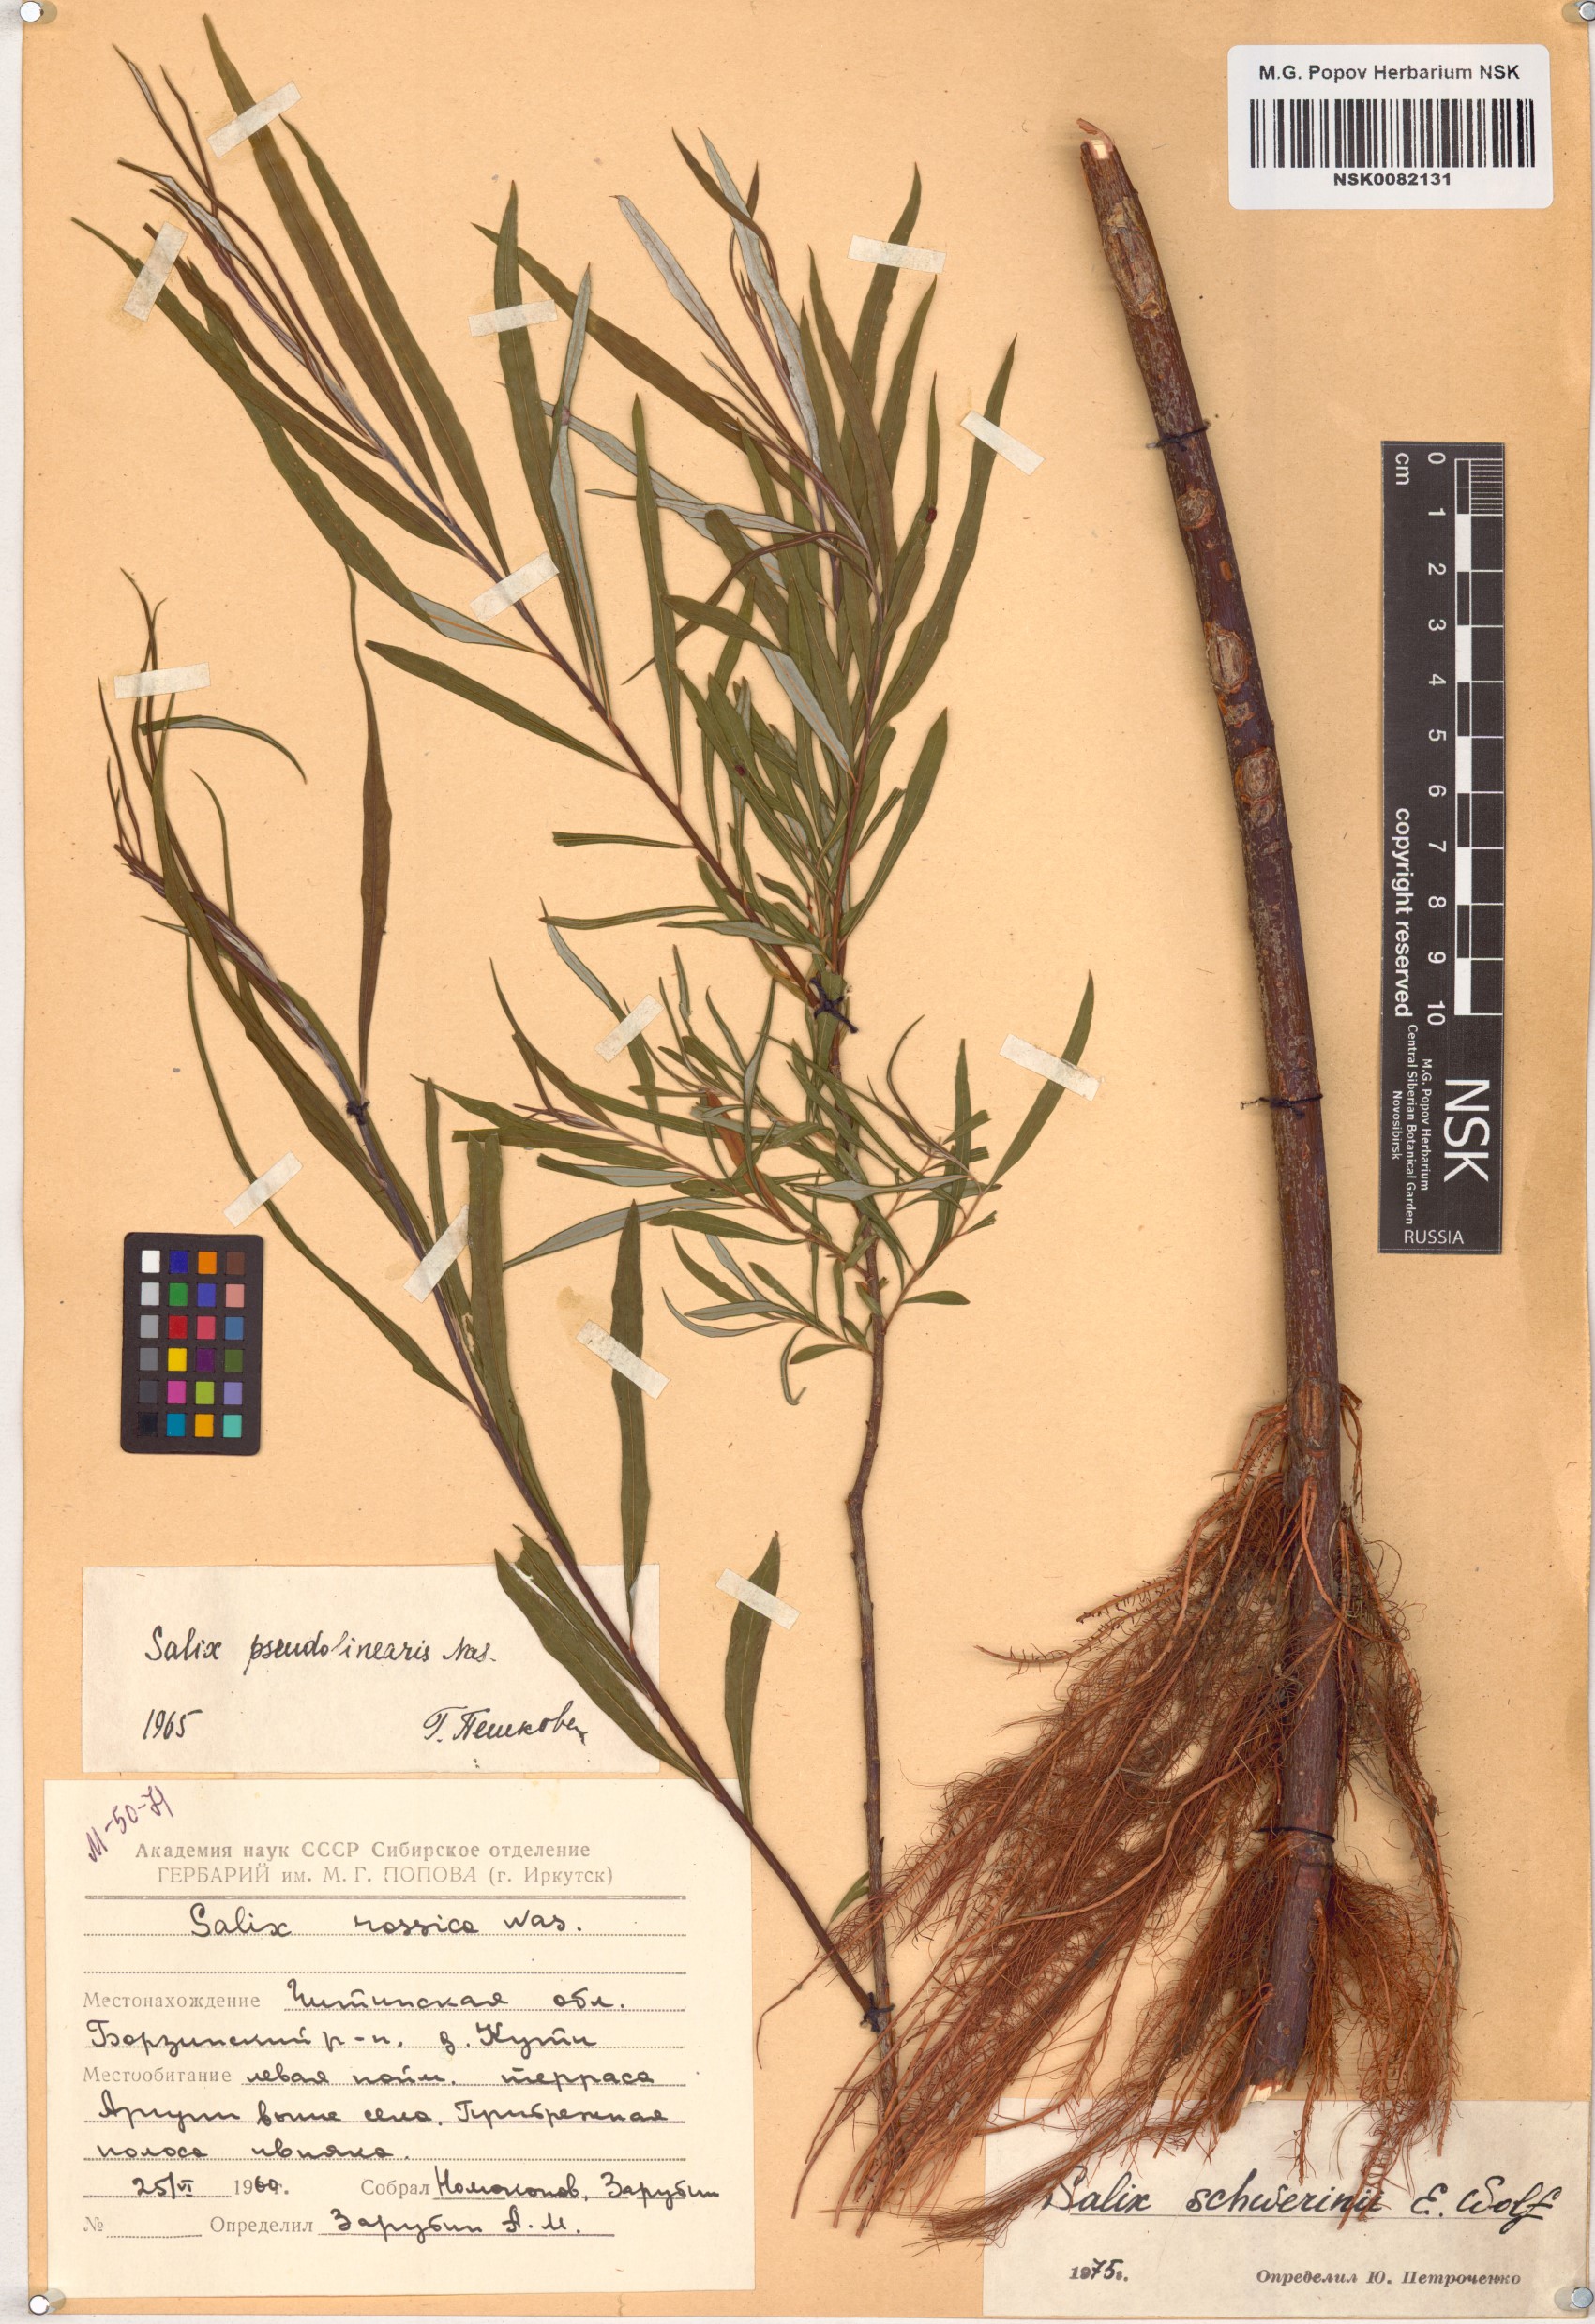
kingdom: Plantae
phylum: Tracheophyta
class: Magnoliopsida
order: Malpighiales
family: Salicaceae
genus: Salix
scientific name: Salix schwerinii
